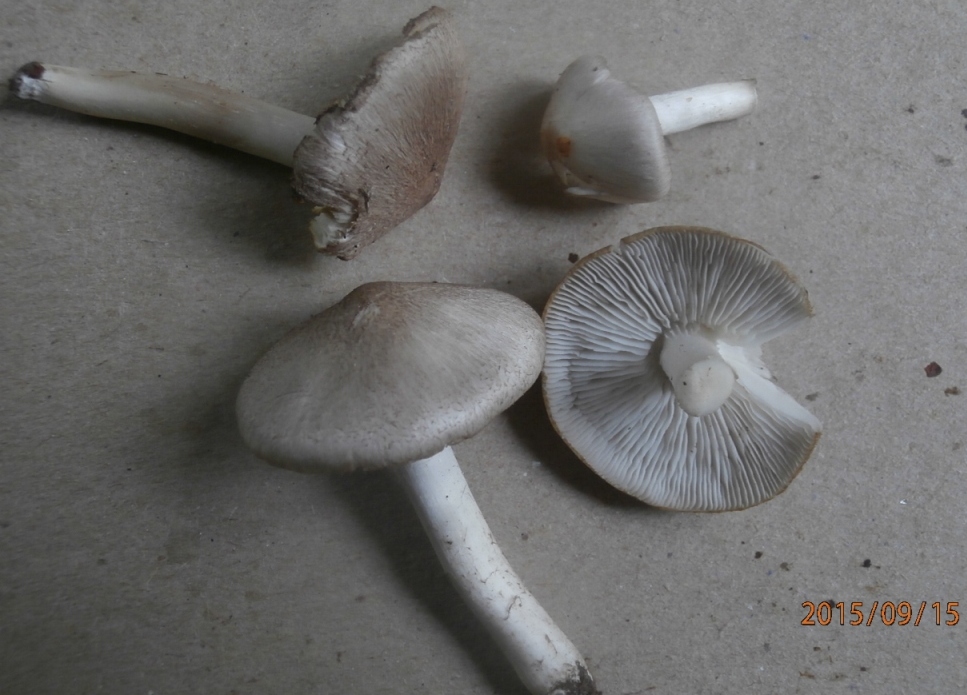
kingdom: Fungi
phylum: Basidiomycota
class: Agaricomycetes
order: Agaricales
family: Tricholomataceae
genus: Tricholoma
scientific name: Tricholoma argyraceum
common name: spids ridderhat
